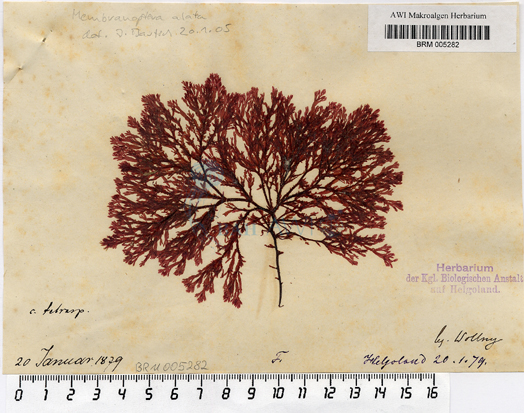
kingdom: Plantae
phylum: Rhodophyta
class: Florideophyceae
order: Ceramiales
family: Delesseriaceae
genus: Membranoptera
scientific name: Membranoptera alata
